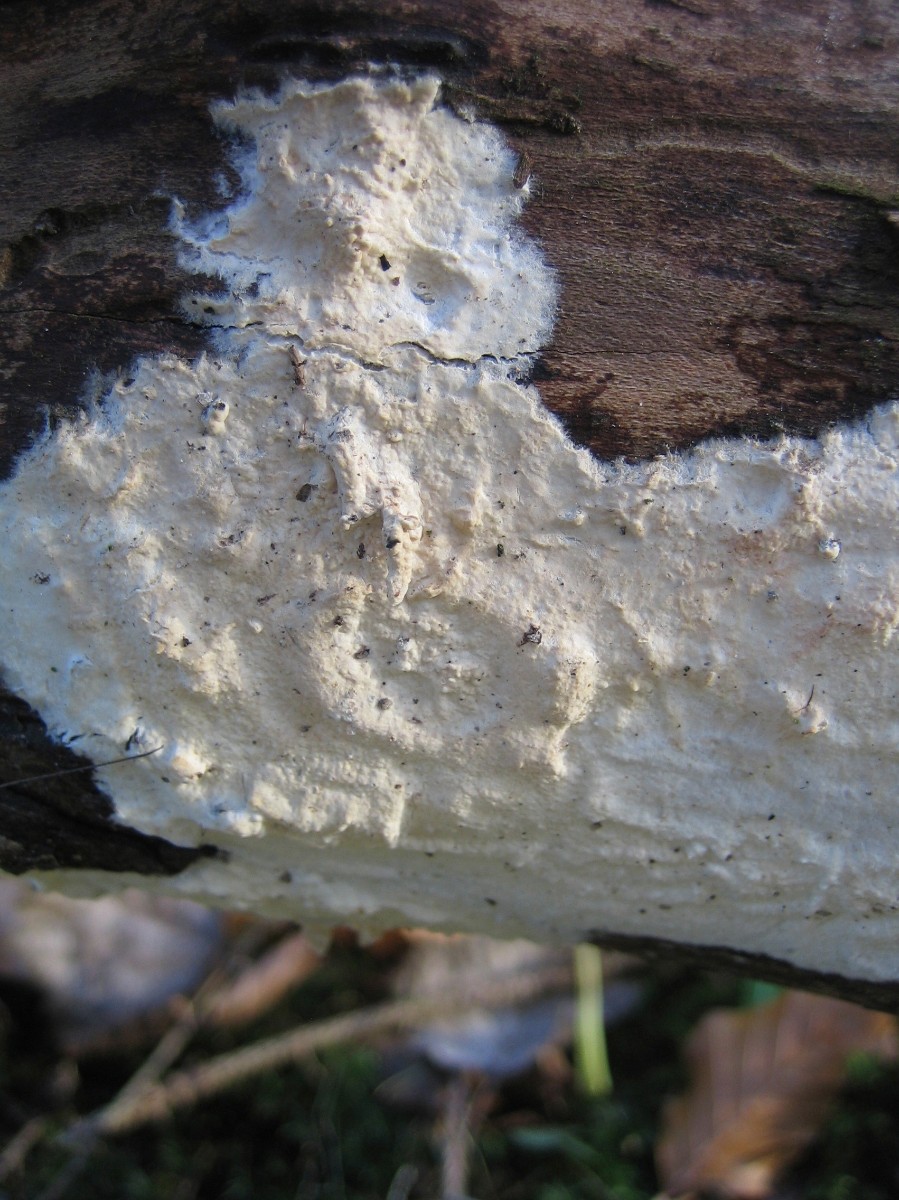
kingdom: Fungi
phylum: Basidiomycota
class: Agaricomycetes
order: Polyporales
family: Irpicaceae
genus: Byssomerulius
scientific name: Byssomerulius corium
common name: læder-åresvamp
